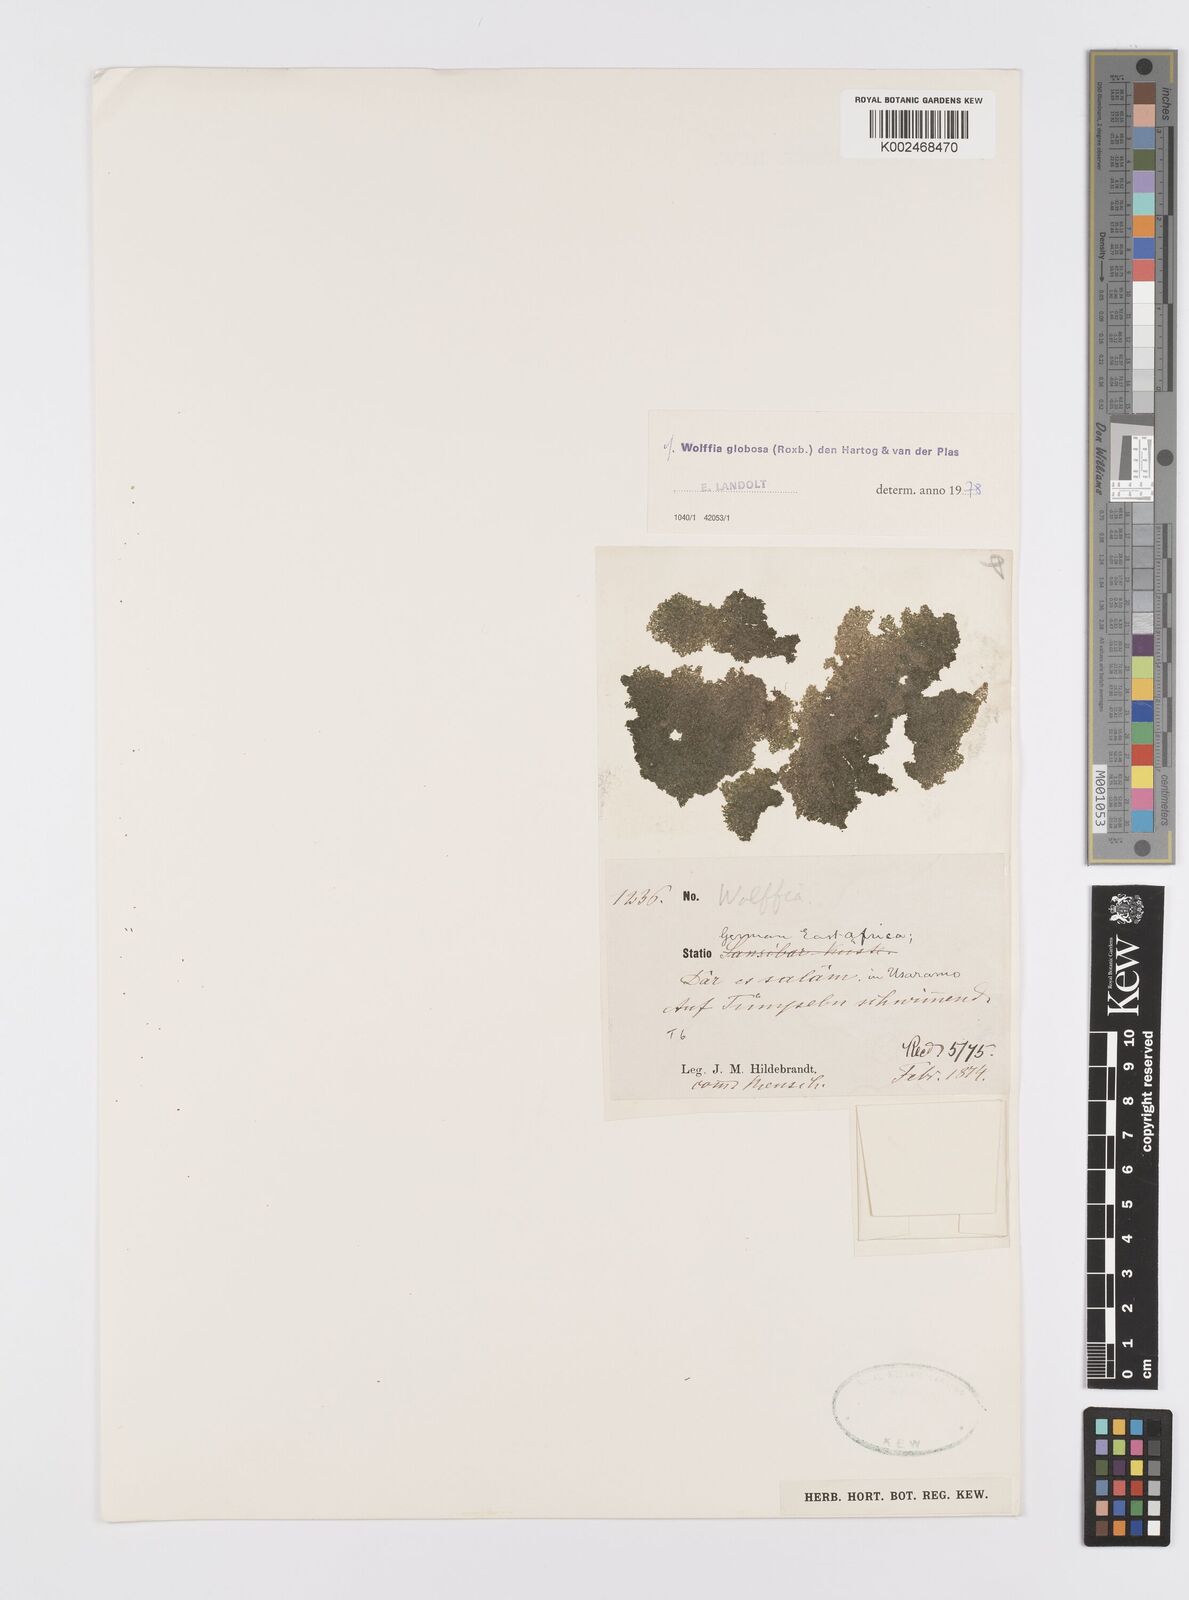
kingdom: Plantae
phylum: Tracheophyta
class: Liliopsida
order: Alismatales
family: Araceae
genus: Wolffia
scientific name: Wolffia globosa
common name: Asian watermeal
